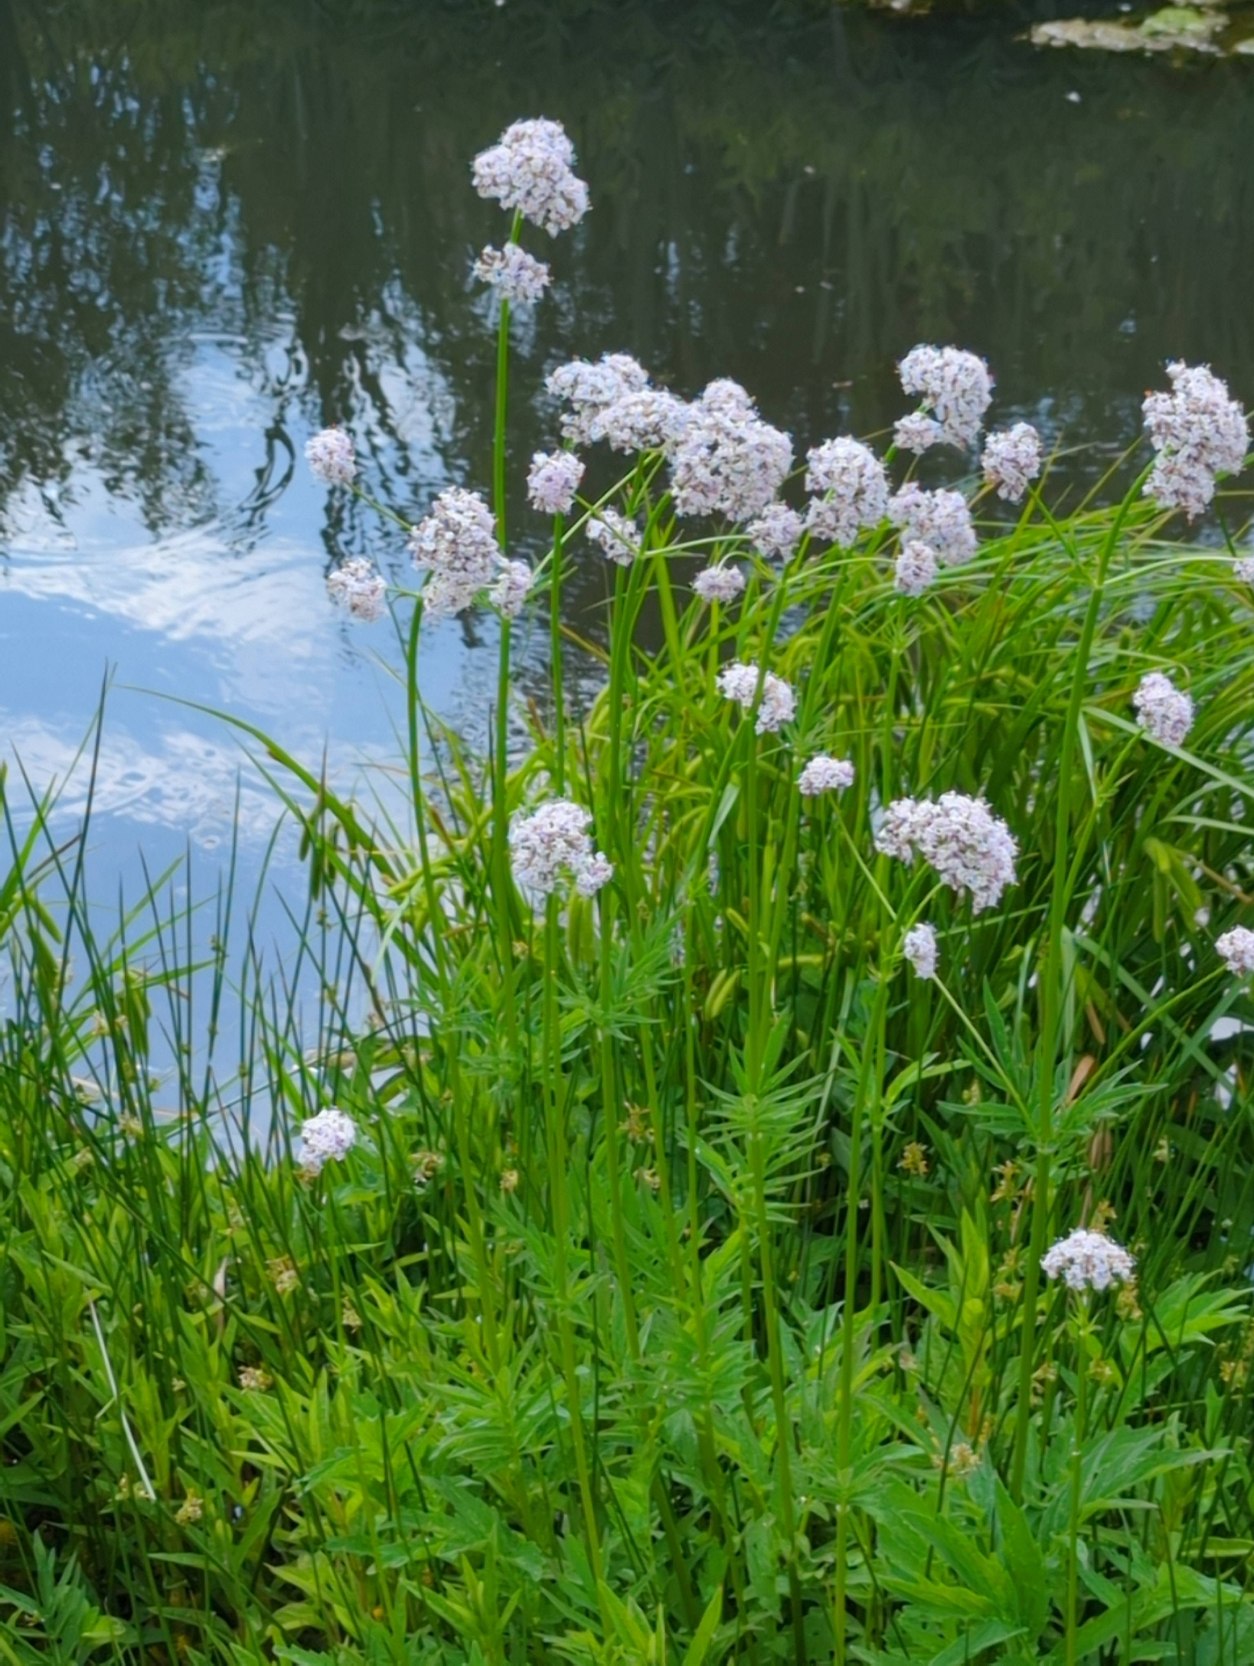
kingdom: Plantae
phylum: Tracheophyta
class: Magnoliopsida
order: Dipsacales
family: Caprifoliaceae
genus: Valeriana
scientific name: Valeriana sambucifolia
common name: Hyldebladet baldrian
